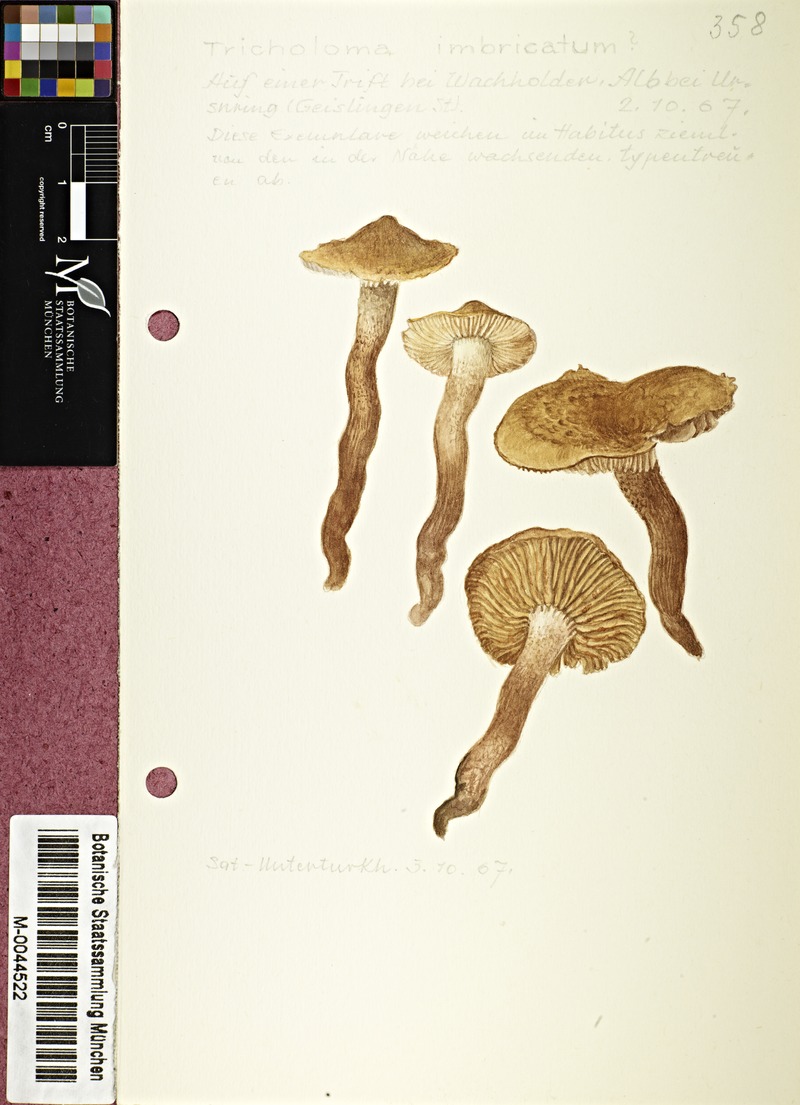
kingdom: Fungi
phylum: Basidiomycota
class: Agaricomycetes
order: Agaricales
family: Tricholomataceae
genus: Tricholoma
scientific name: Tricholoma imbricatum
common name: Matt knight
